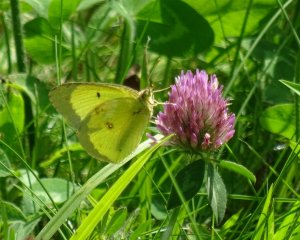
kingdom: Animalia
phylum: Arthropoda
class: Insecta
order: Lepidoptera
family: Pieridae
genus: Colias
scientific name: Colias philodice
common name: Clouded Sulphur
